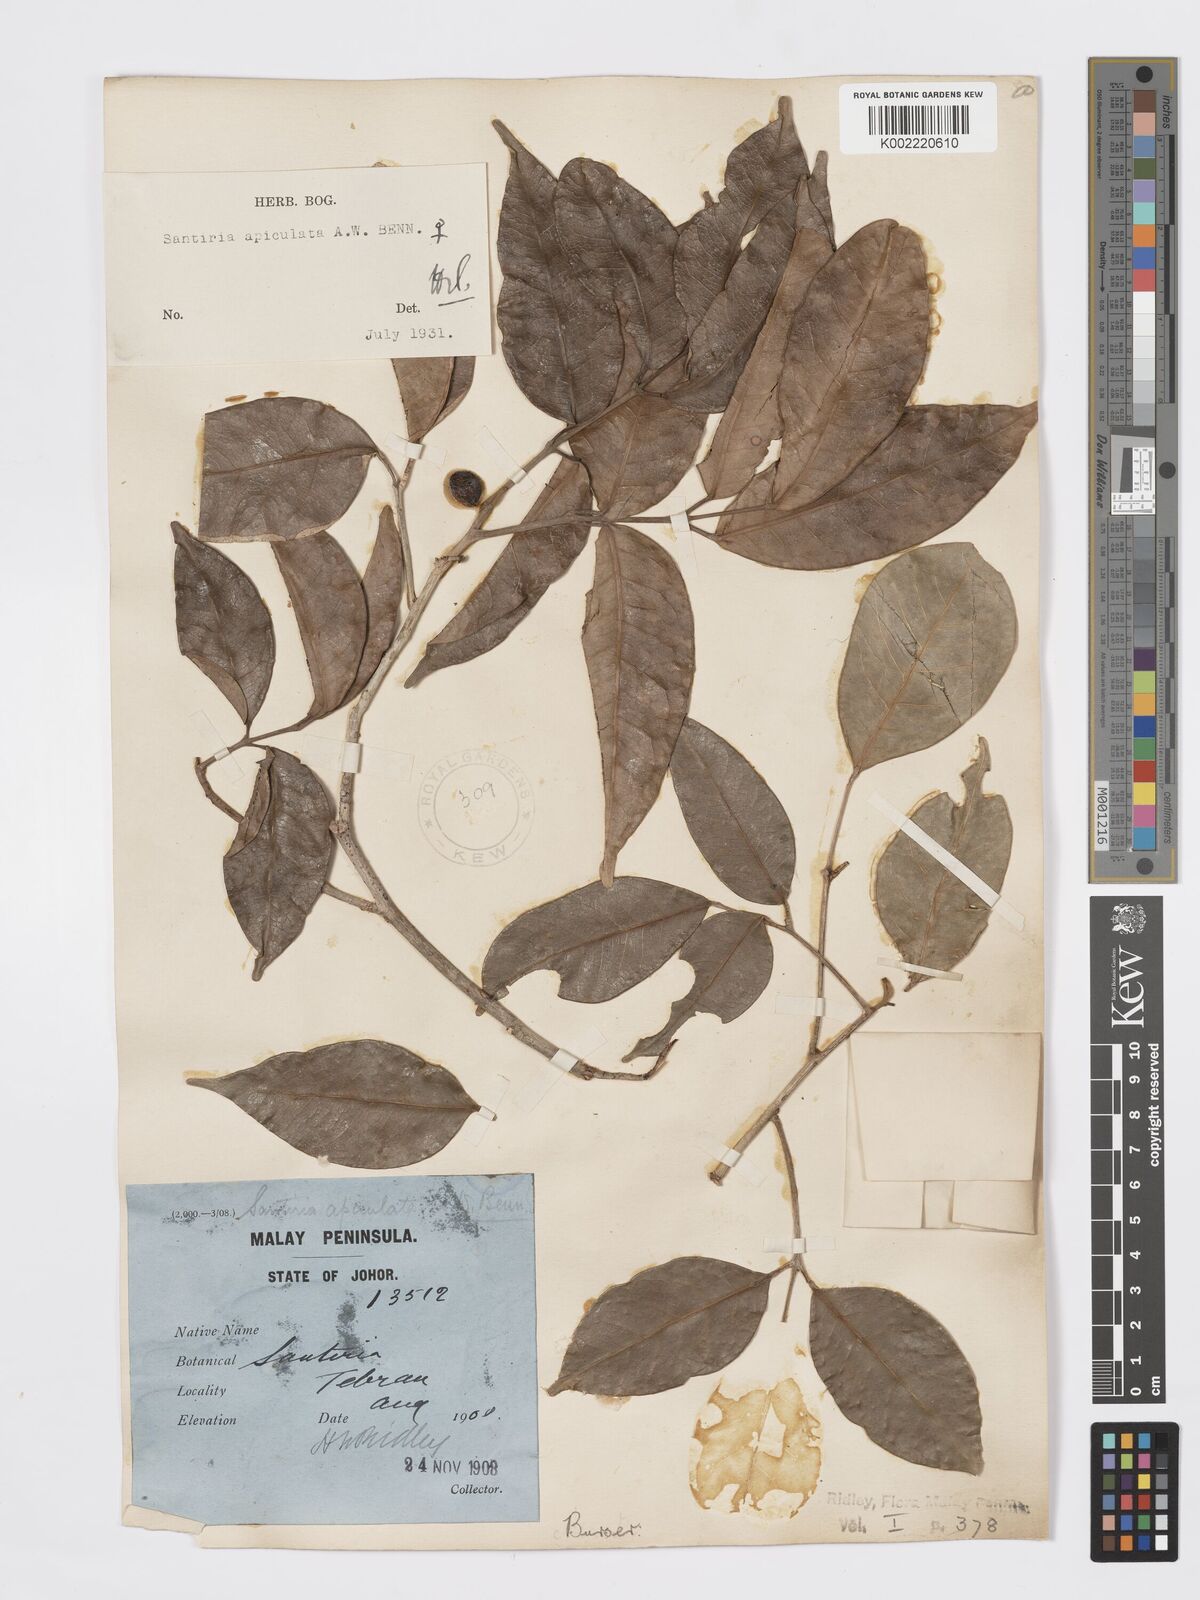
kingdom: Plantae
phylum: Tracheophyta
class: Magnoliopsida
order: Sapindales
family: Burseraceae
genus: Santiria
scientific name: Santiria apiculata
